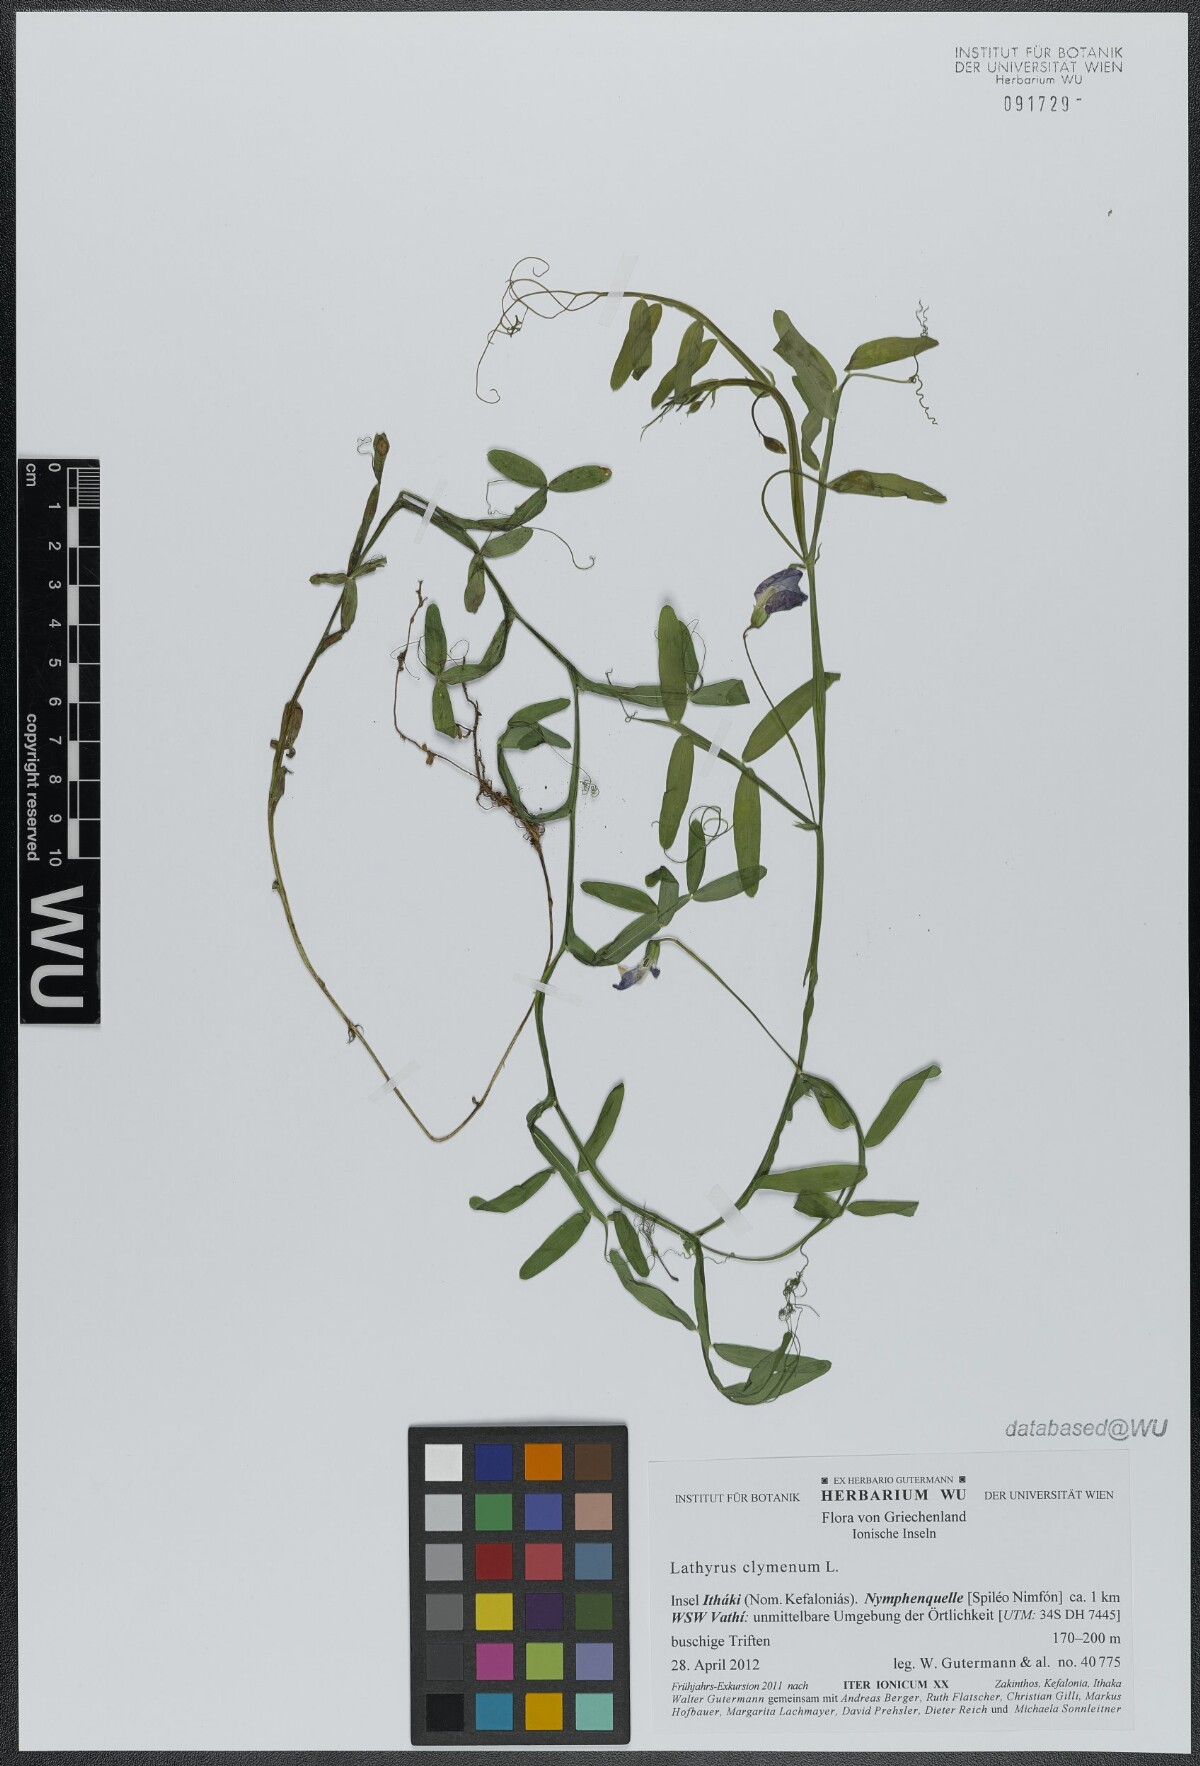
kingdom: Plantae
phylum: Tracheophyta
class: Magnoliopsida
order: Fabales
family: Fabaceae
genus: Lathyrus
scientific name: Lathyrus clymenum
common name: Spanish vetchling
